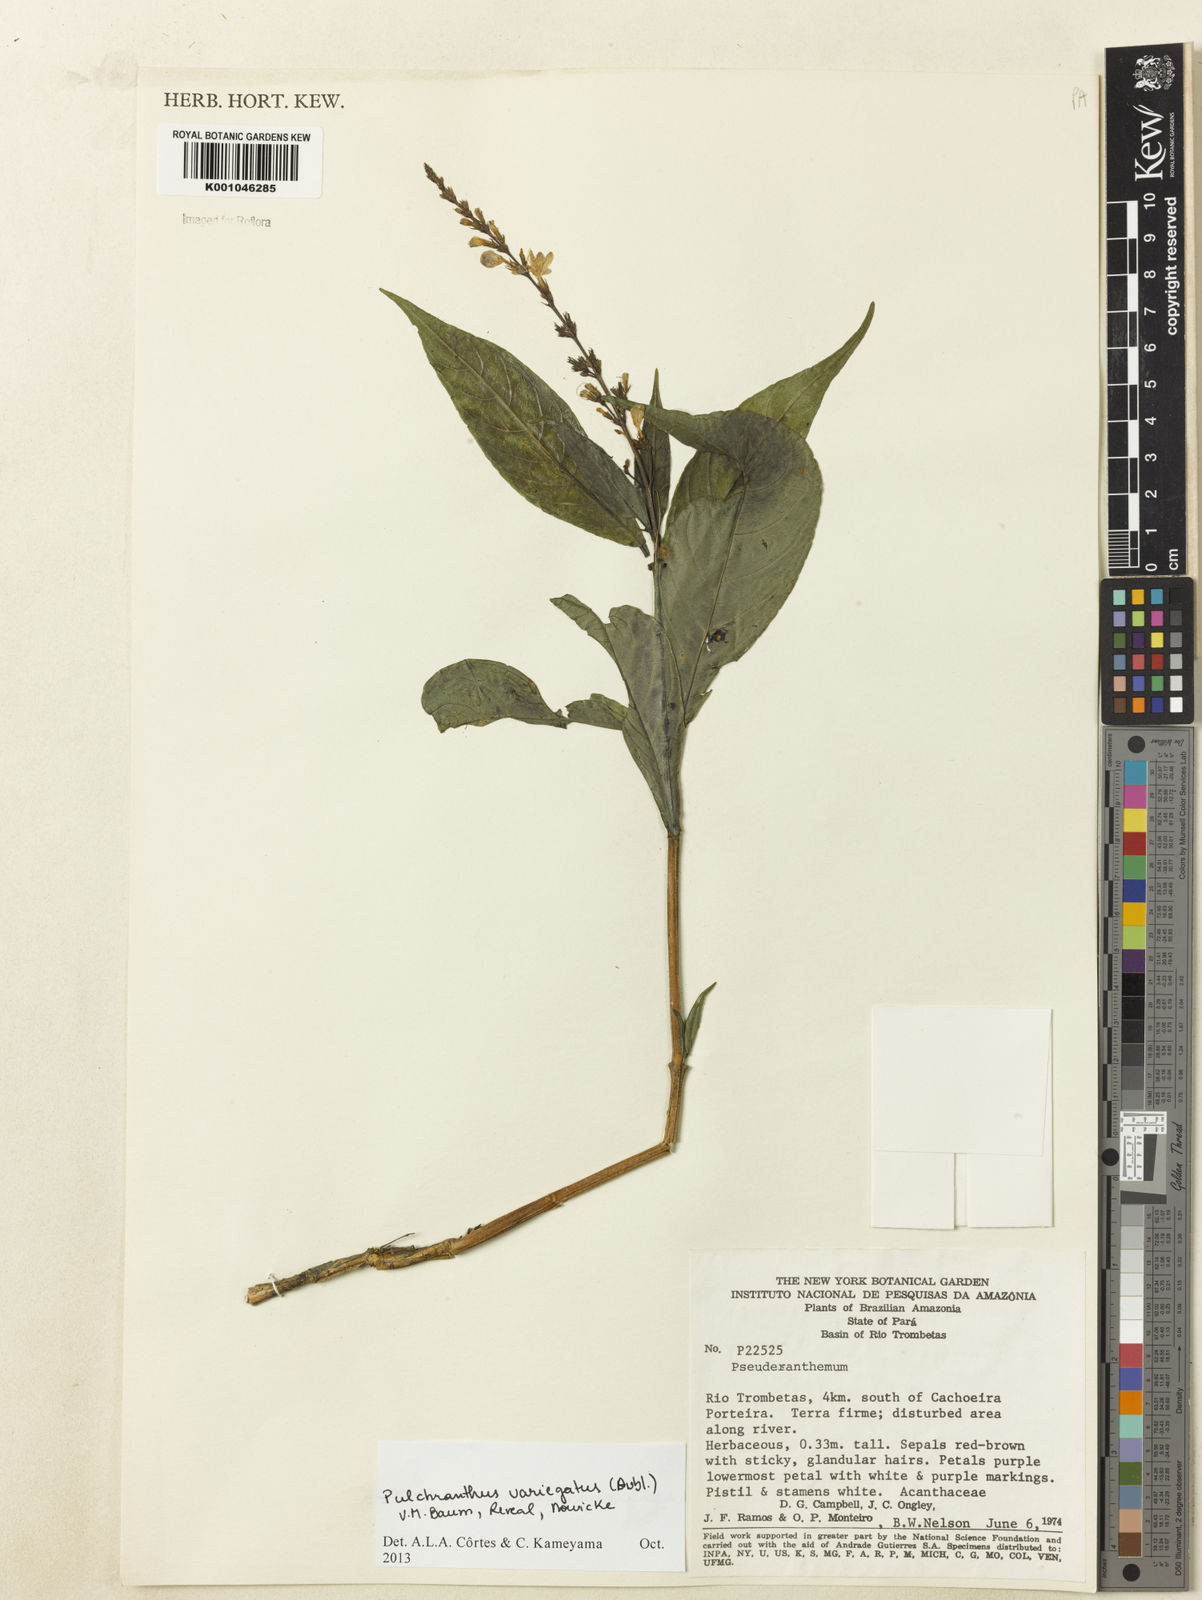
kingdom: Plantae
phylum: Tracheophyta
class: Magnoliopsida
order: Lamiales
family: Acanthaceae
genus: Pulchranthus
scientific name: Pulchranthus
